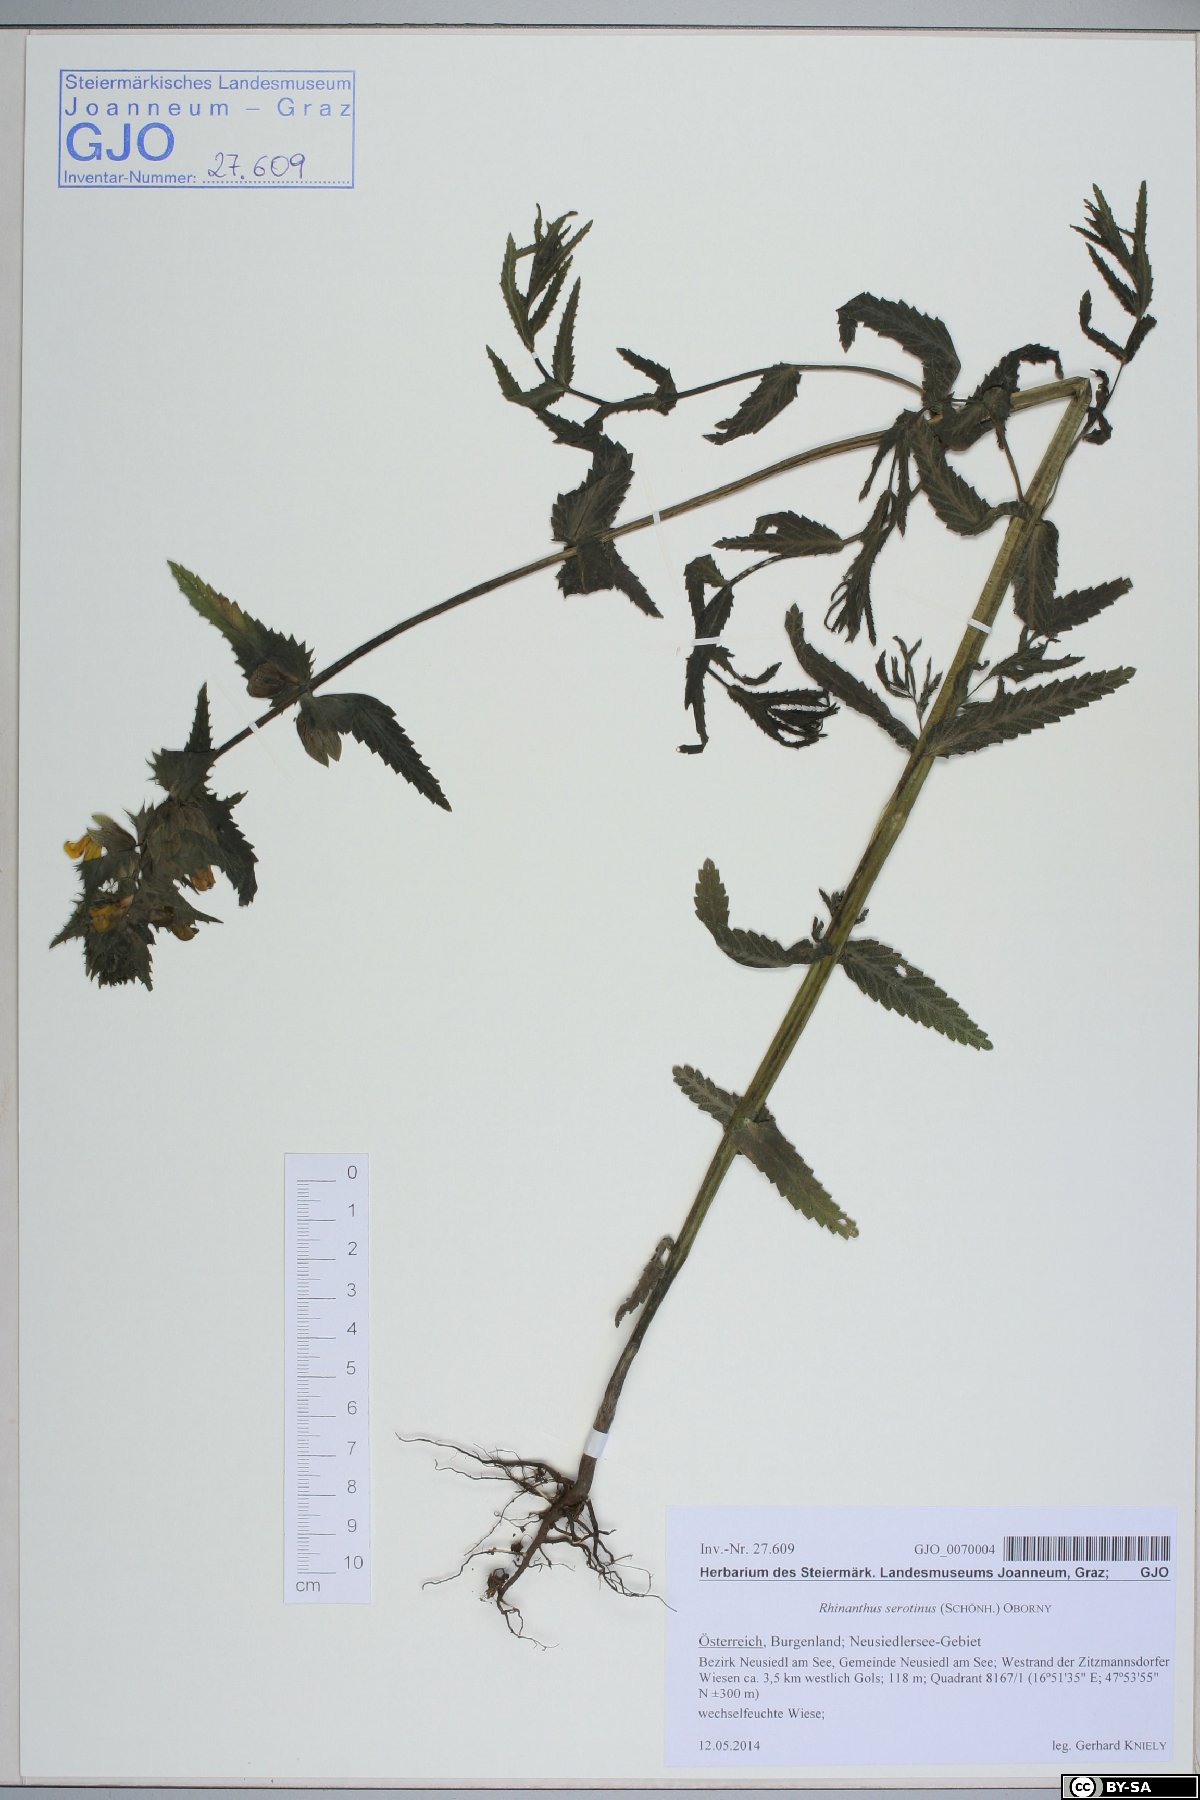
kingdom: Plantae
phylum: Tracheophyta
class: Magnoliopsida
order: Lamiales
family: Orobanchaceae
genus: Rhinanthus
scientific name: Rhinanthus serotinus
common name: Late-flowering yellow rattle
